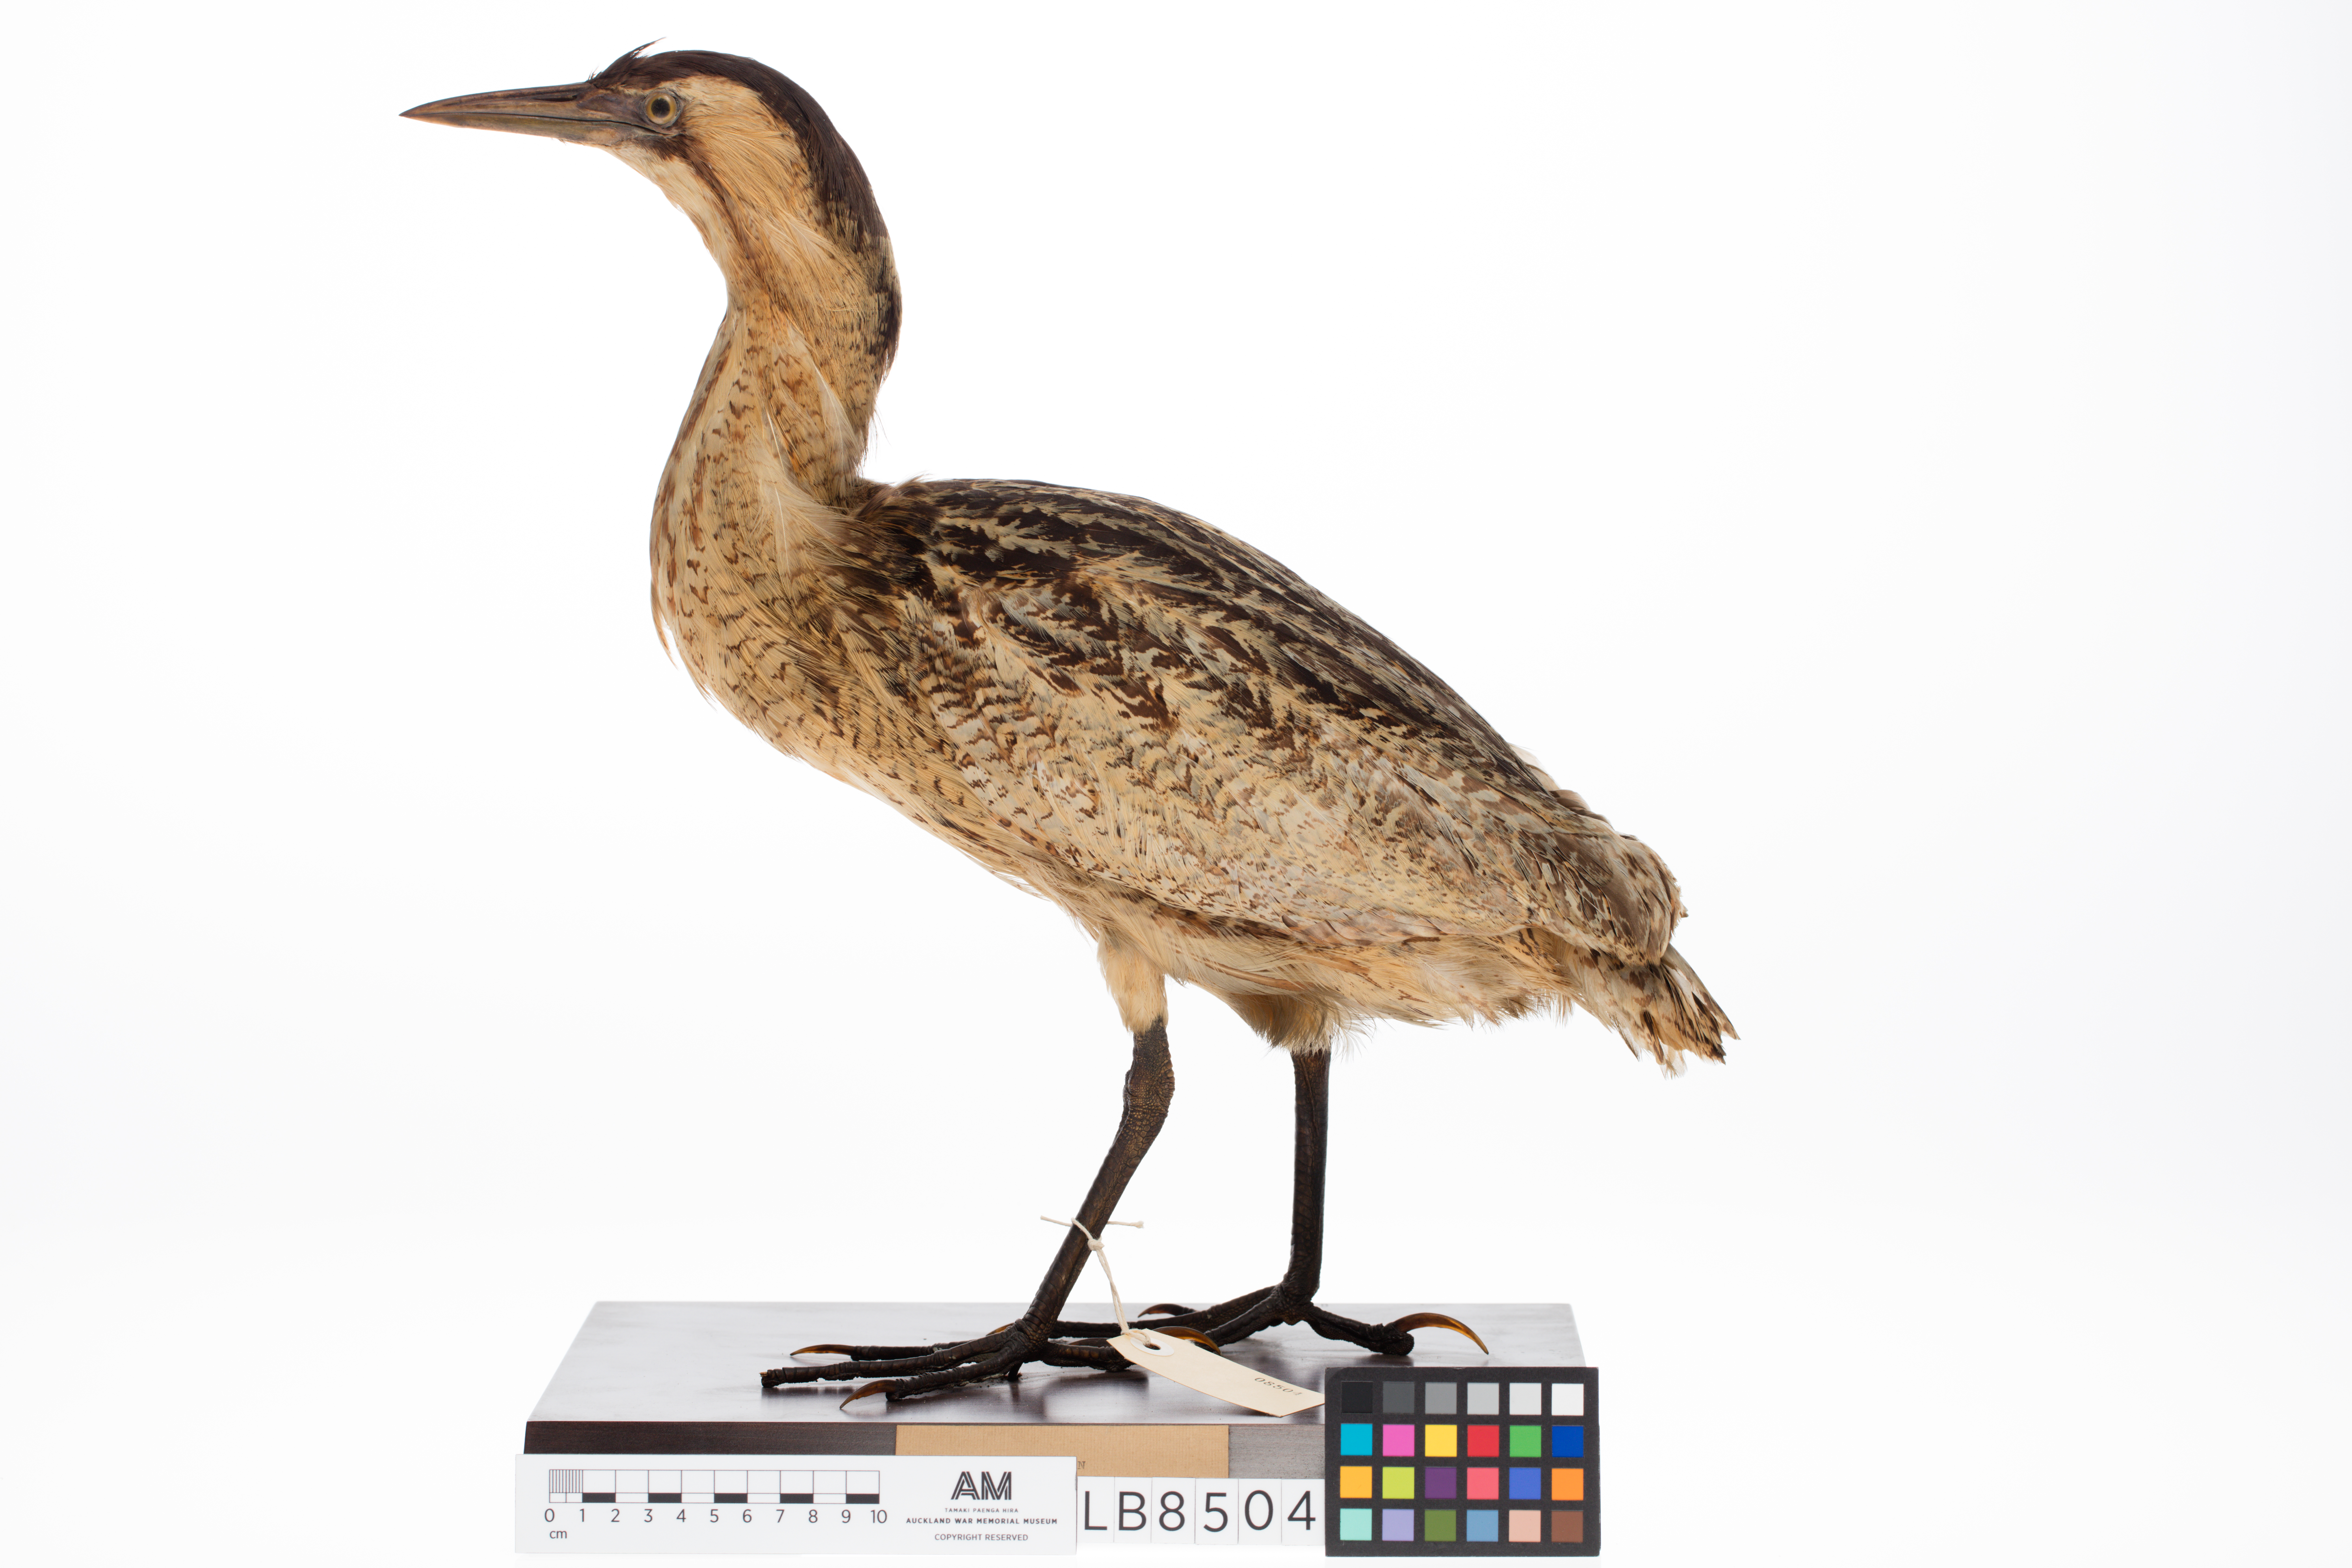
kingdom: Animalia
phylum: Chordata
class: Aves
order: Pelecaniformes
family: Ardeidae
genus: Botaurus
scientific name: Botaurus stellaris
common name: Eurasian bittern
